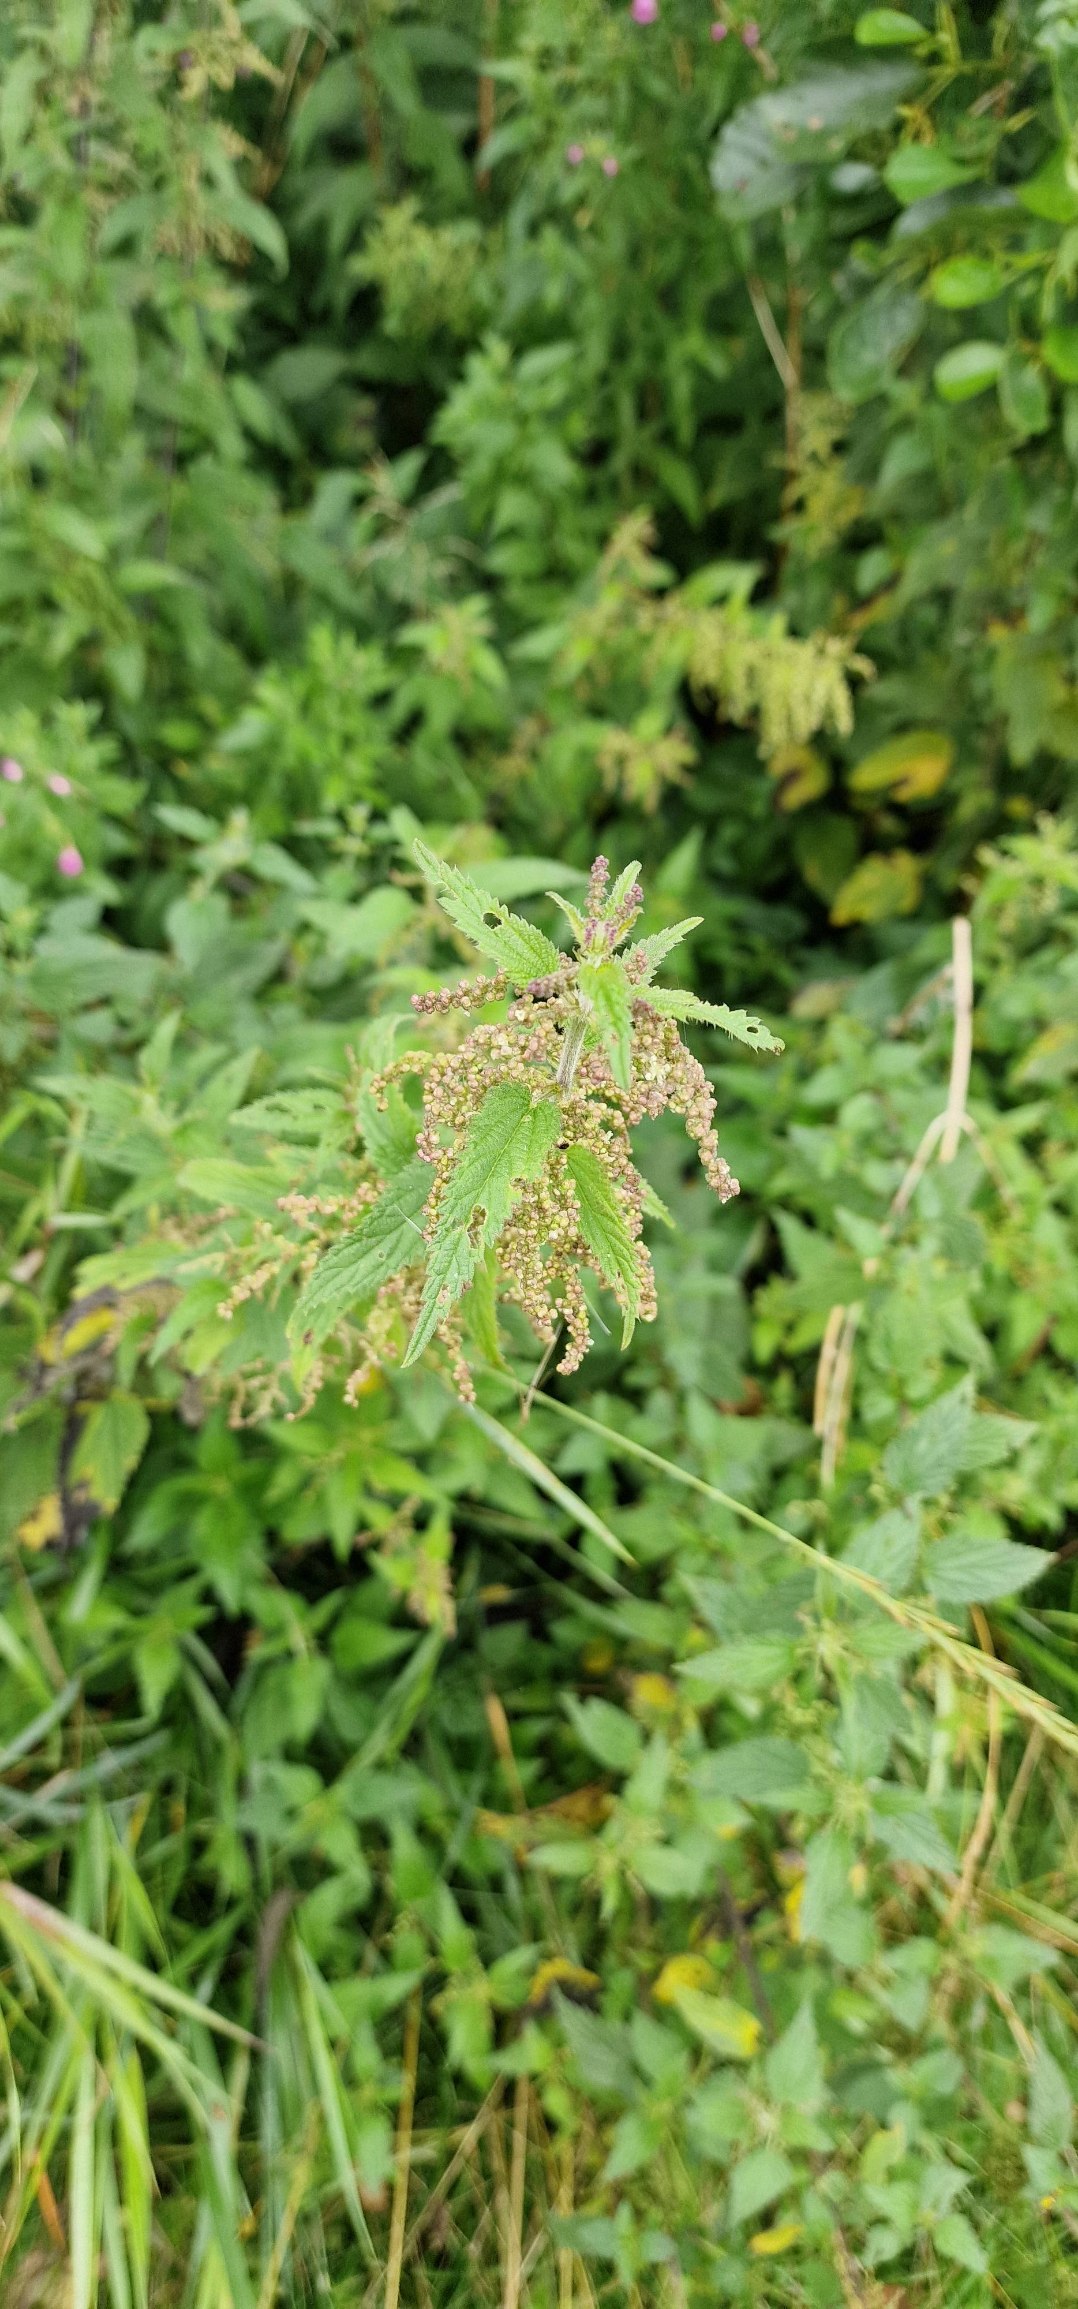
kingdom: Plantae
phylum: Tracheophyta
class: Magnoliopsida
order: Rosales
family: Urticaceae
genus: Urtica
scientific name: Urtica dioica
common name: Stor nælde
